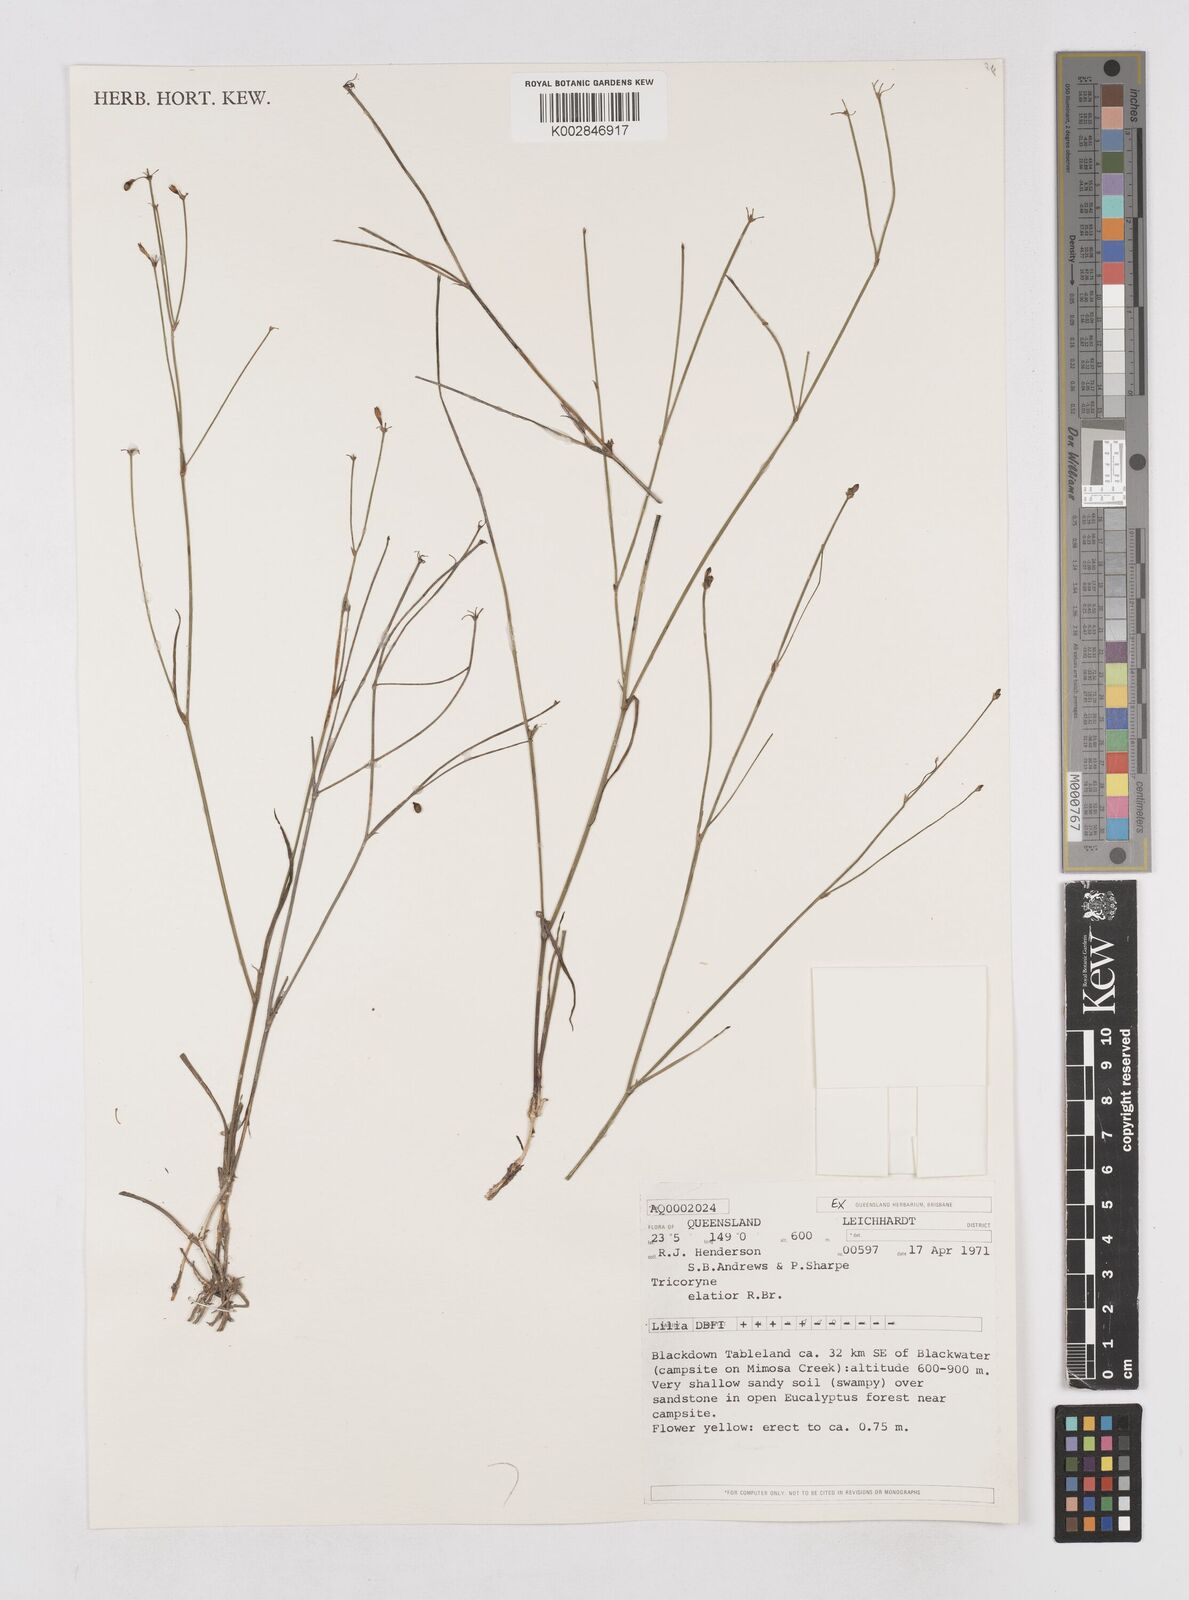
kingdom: Plantae
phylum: Tracheophyta
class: Liliopsida
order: Asparagales
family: Asphodelaceae
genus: Tricoryne
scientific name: Tricoryne elatior
